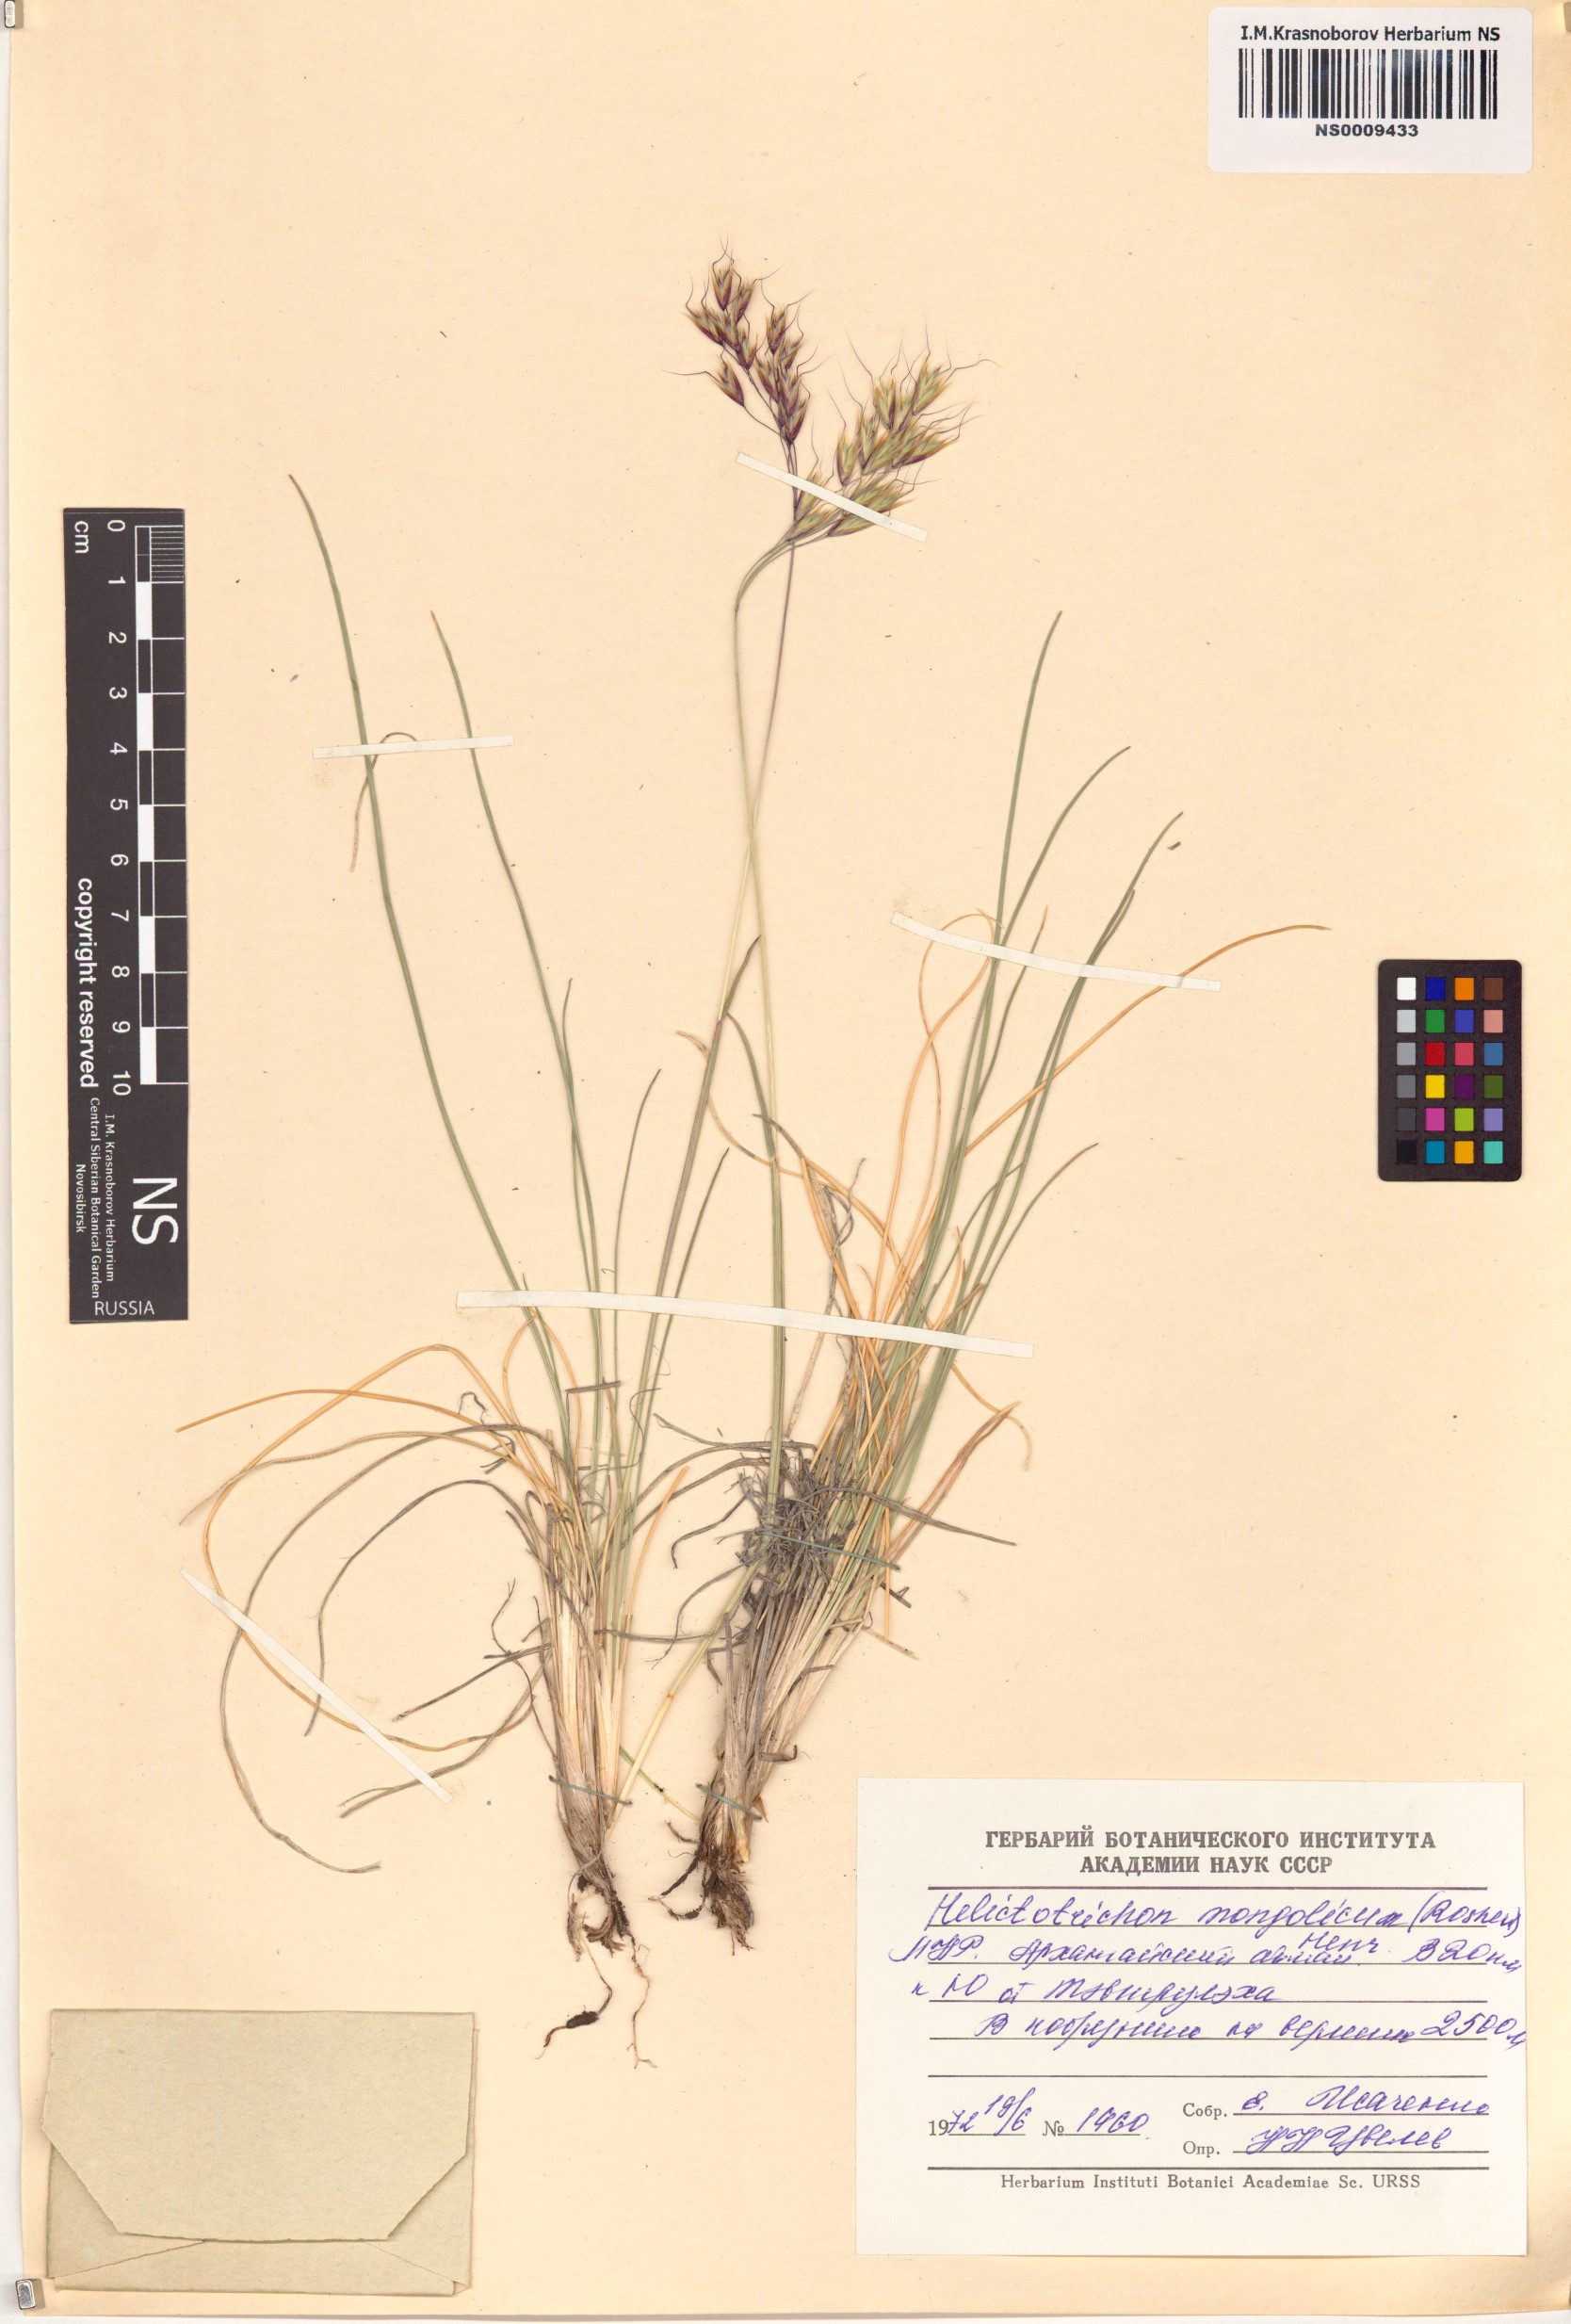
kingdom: Plantae
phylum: Tracheophyta
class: Liliopsida
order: Poales
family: Poaceae
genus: Helictotrichon
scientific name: Helictotrichon mongolicum
